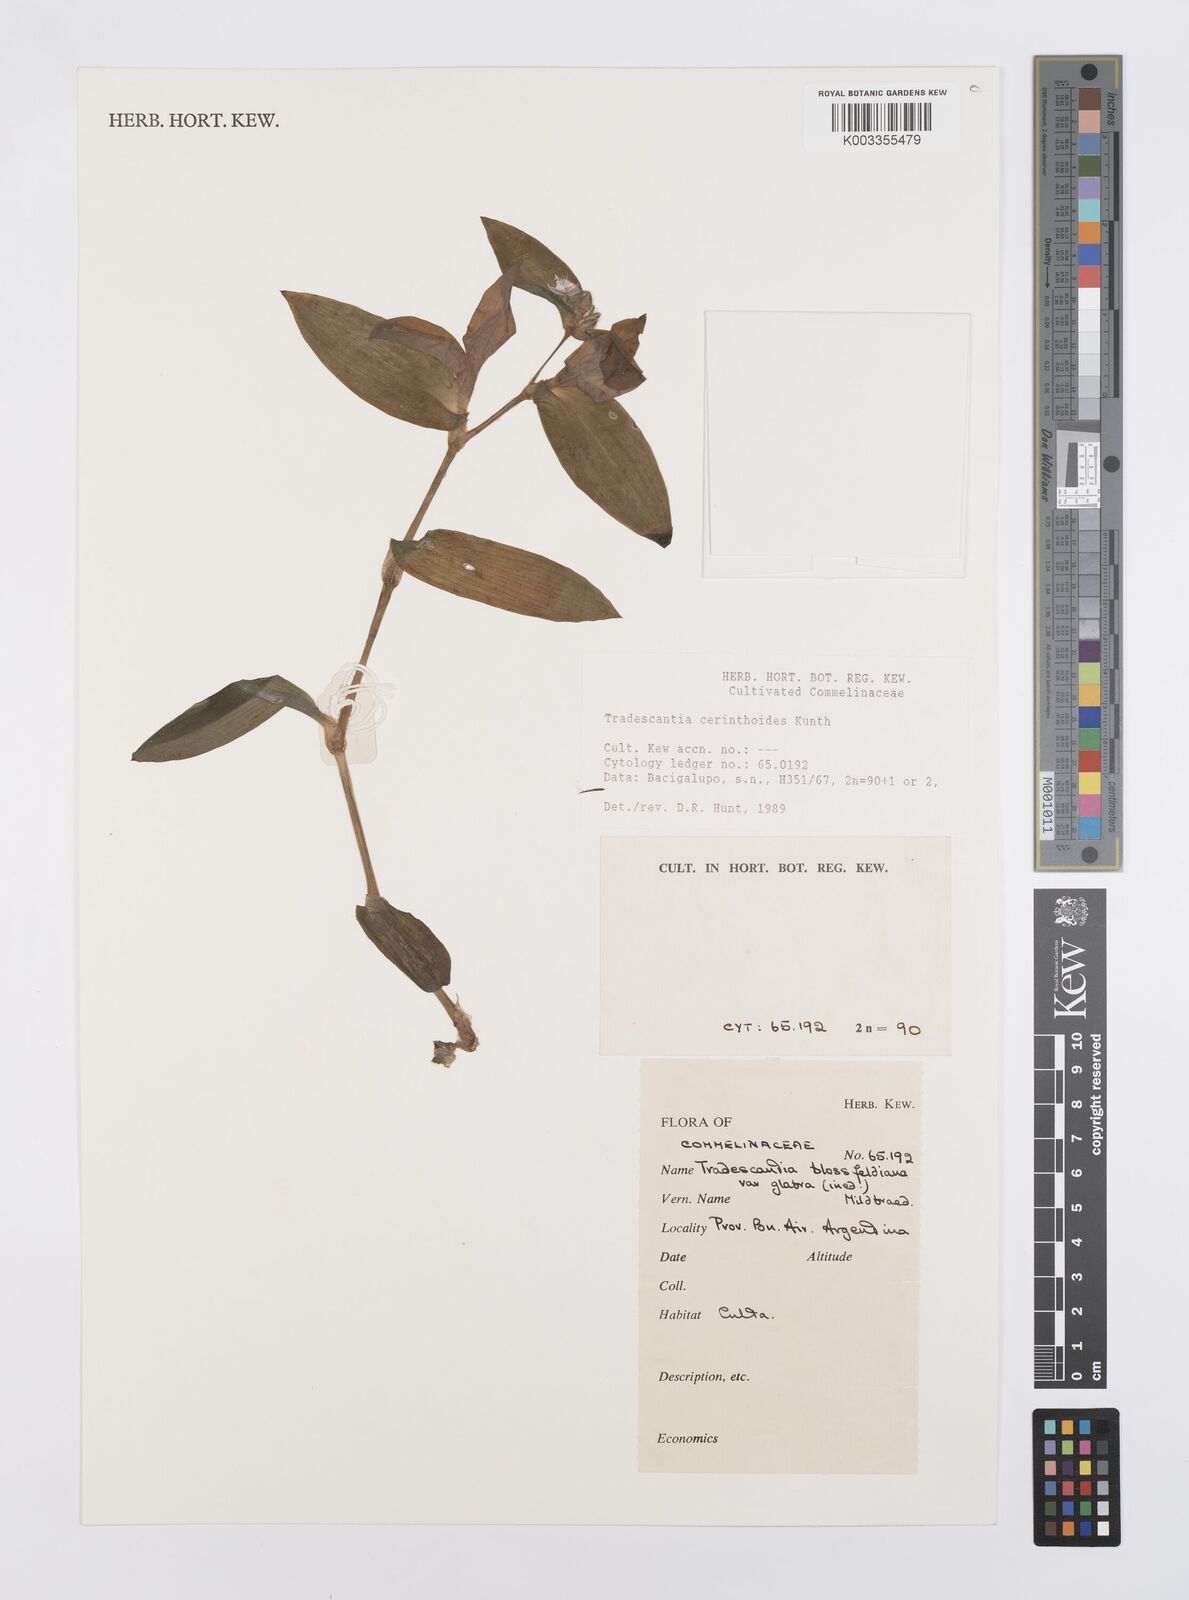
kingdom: Plantae
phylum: Tracheophyta
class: Liliopsida
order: Commelinales
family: Commelinaceae
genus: Tradescantia
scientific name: Tradescantia cerinthoides
